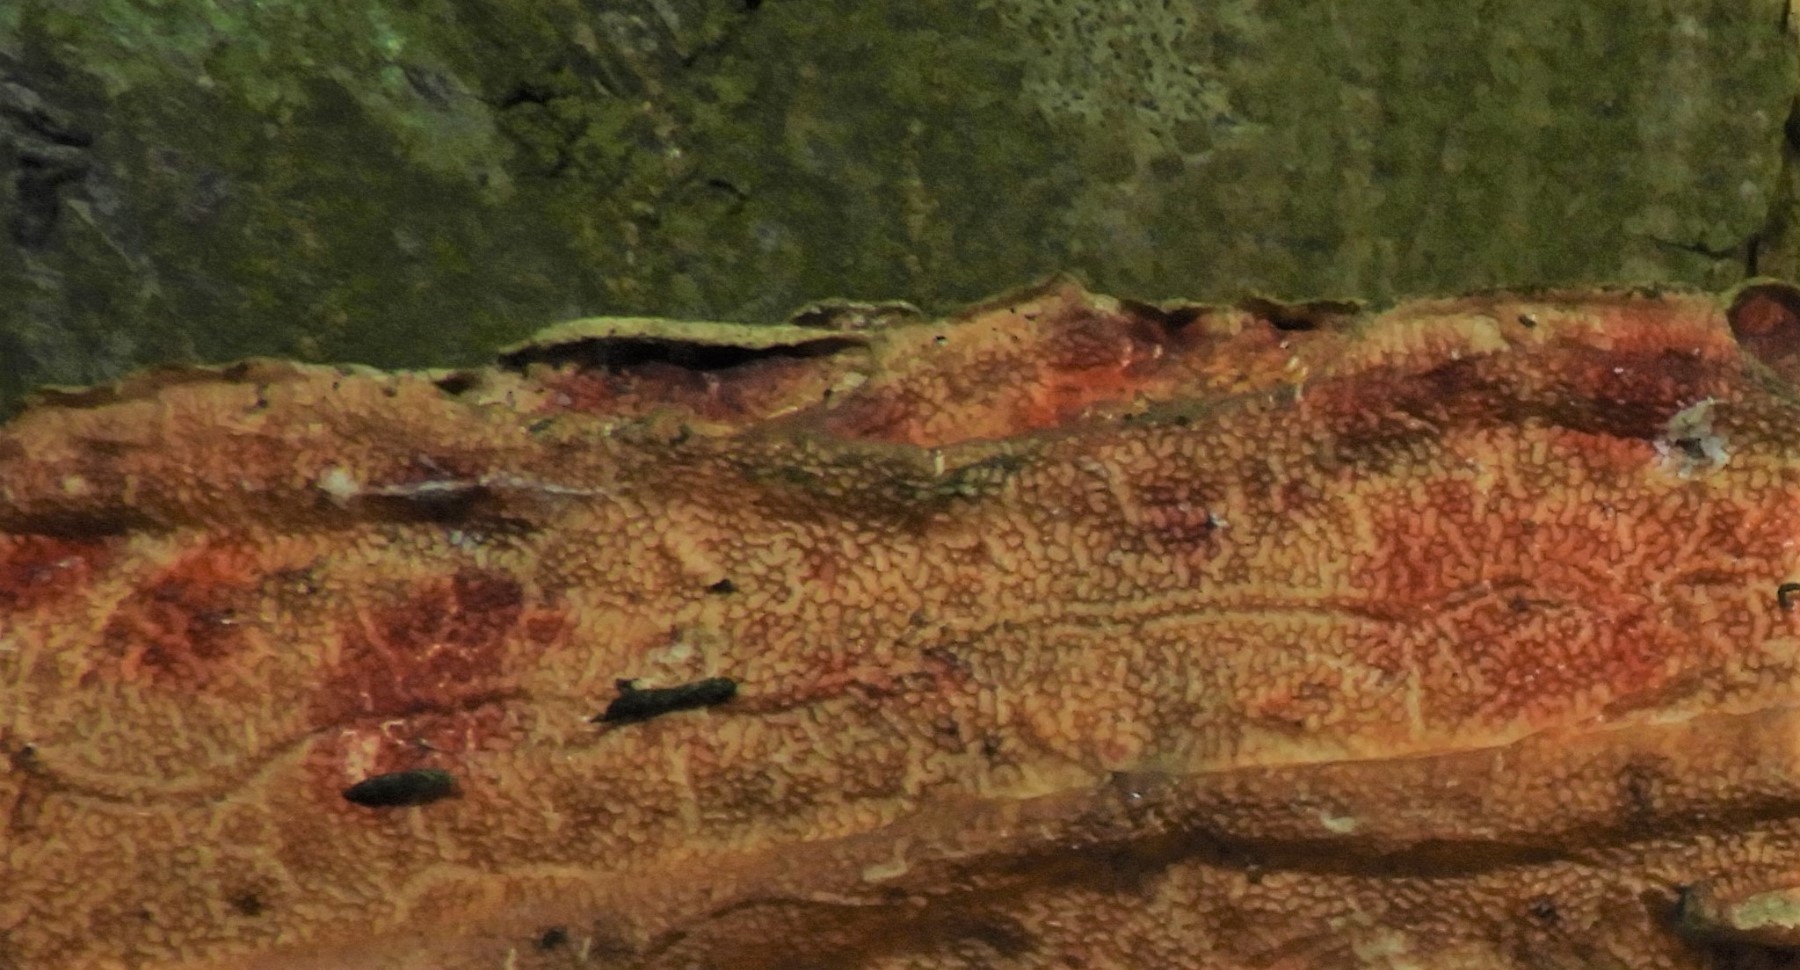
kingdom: Fungi
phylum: Basidiomycota
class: Agaricomycetes
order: Corticiales
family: Corticiaceae
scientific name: Corticiaceae
